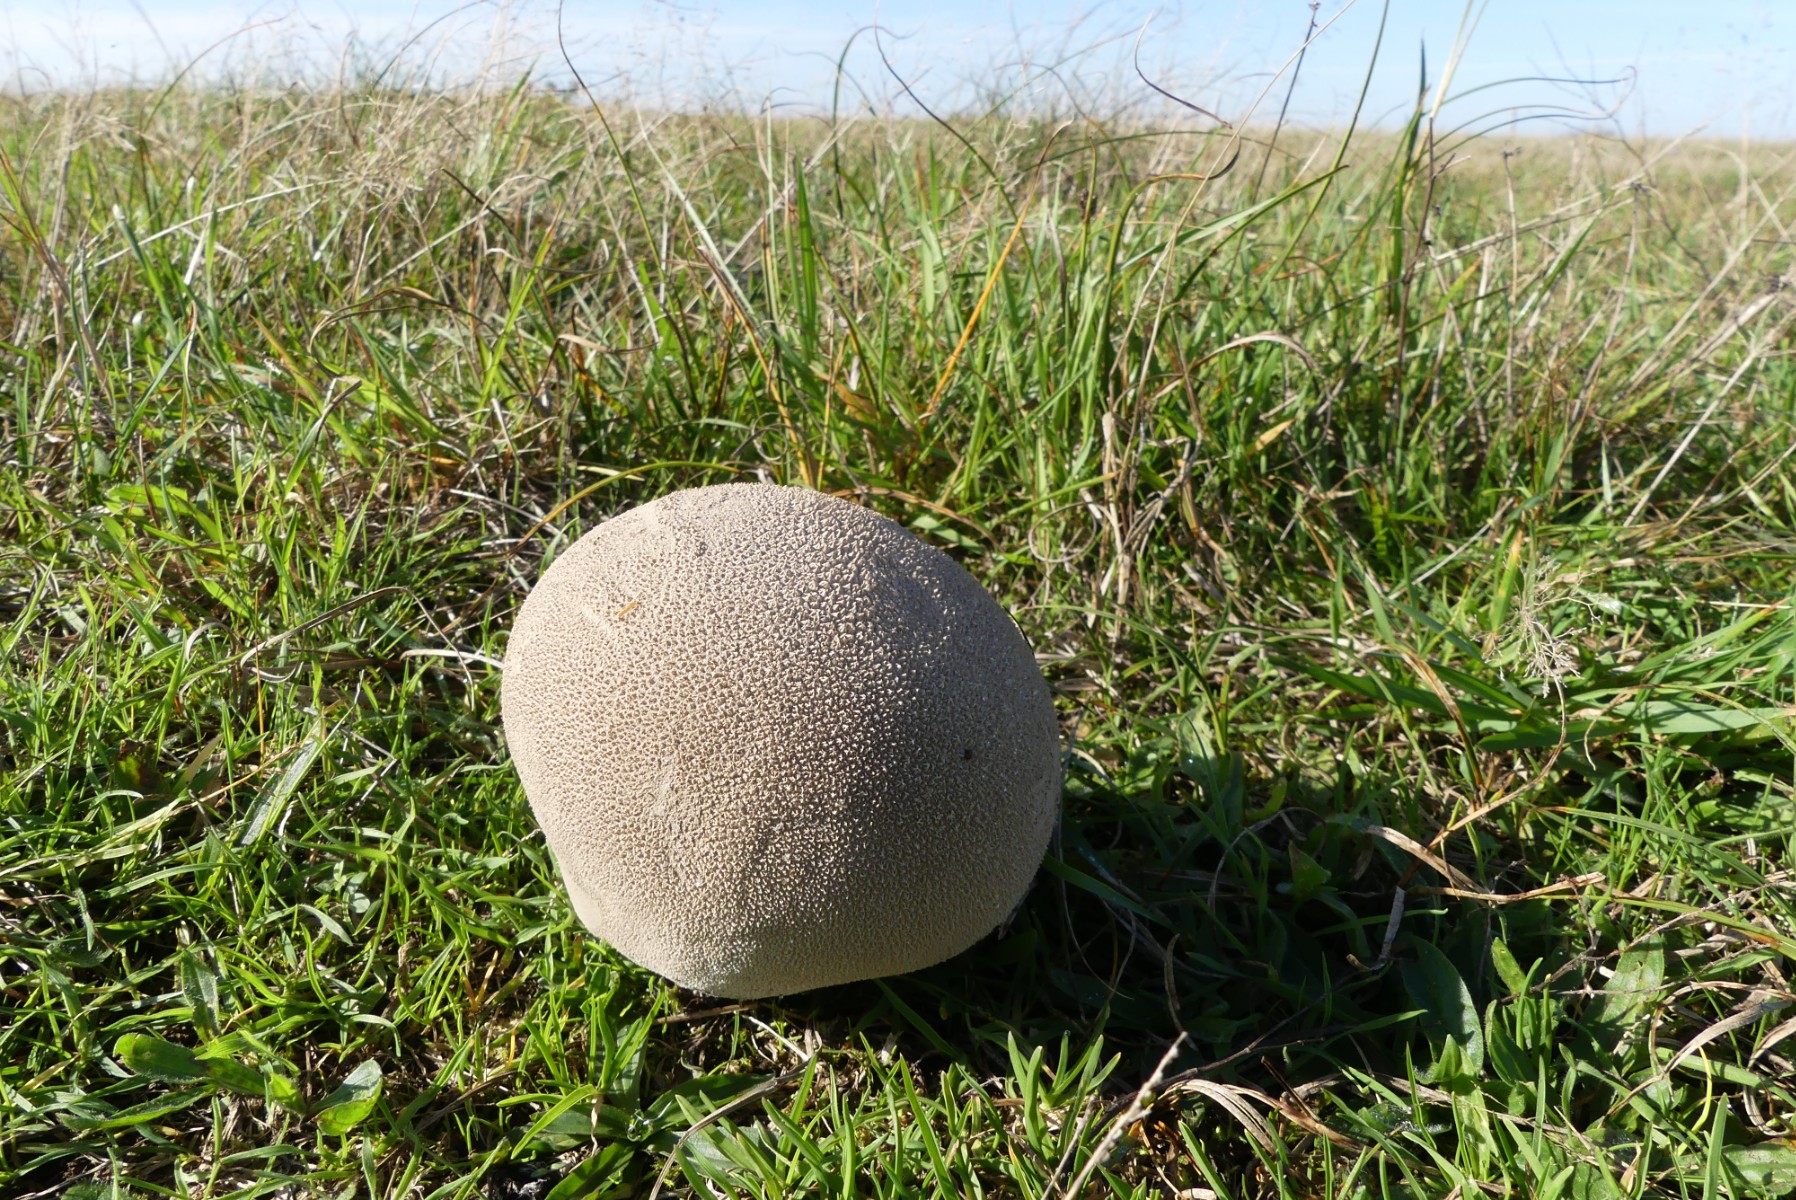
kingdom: Fungi
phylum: Basidiomycota
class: Agaricomycetes
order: Agaricales
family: Lycoperdaceae
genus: Bovistella
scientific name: Bovistella utriformis
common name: skællet støvbold
